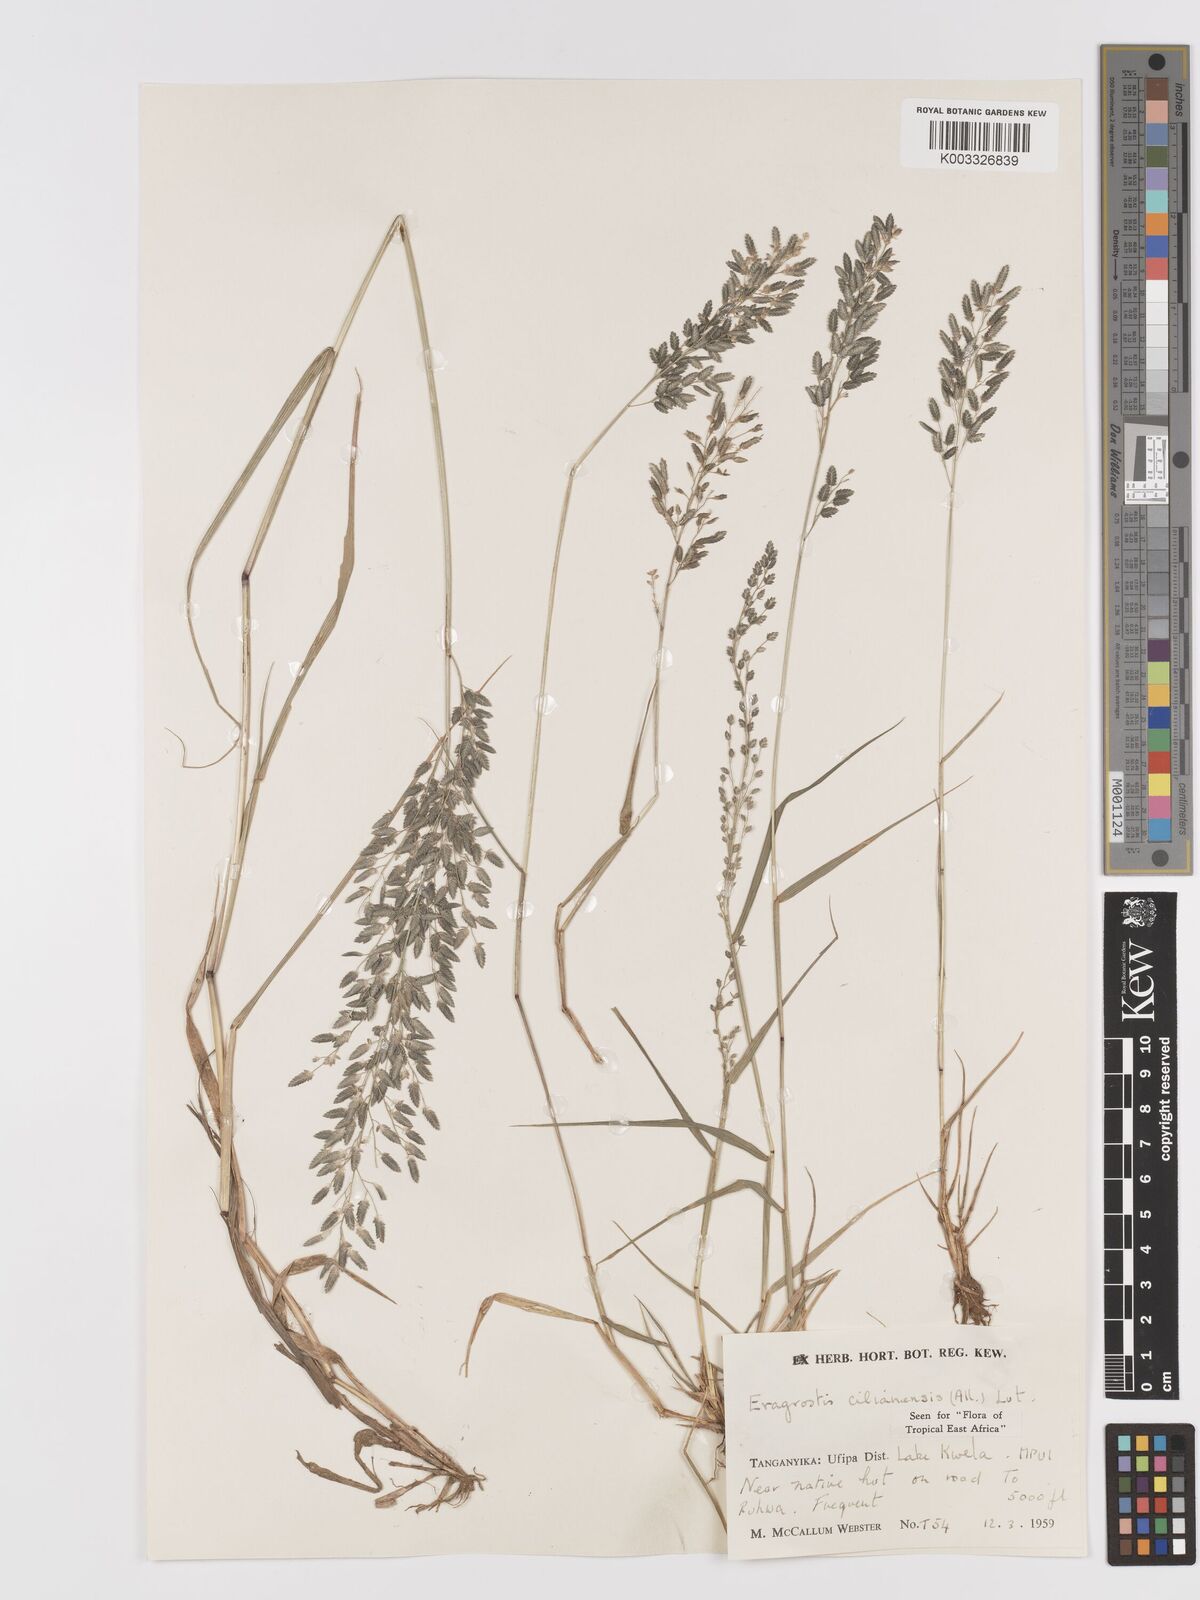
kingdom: Plantae
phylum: Tracheophyta
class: Liliopsida
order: Poales
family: Poaceae
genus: Eragrostis
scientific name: Eragrostis cilianensis
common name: Stinkgrass
